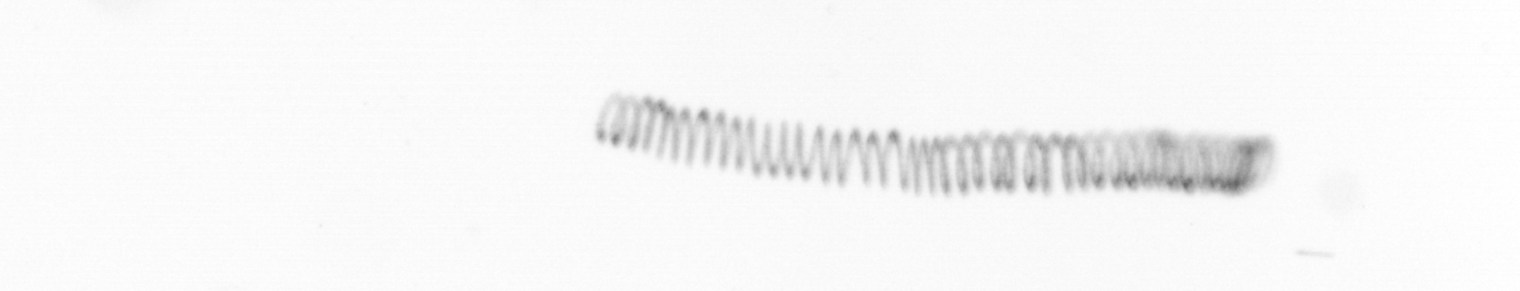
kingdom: Chromista
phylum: Ochrophyta
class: Bacillariophyceae
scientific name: Bacillariophyceae
